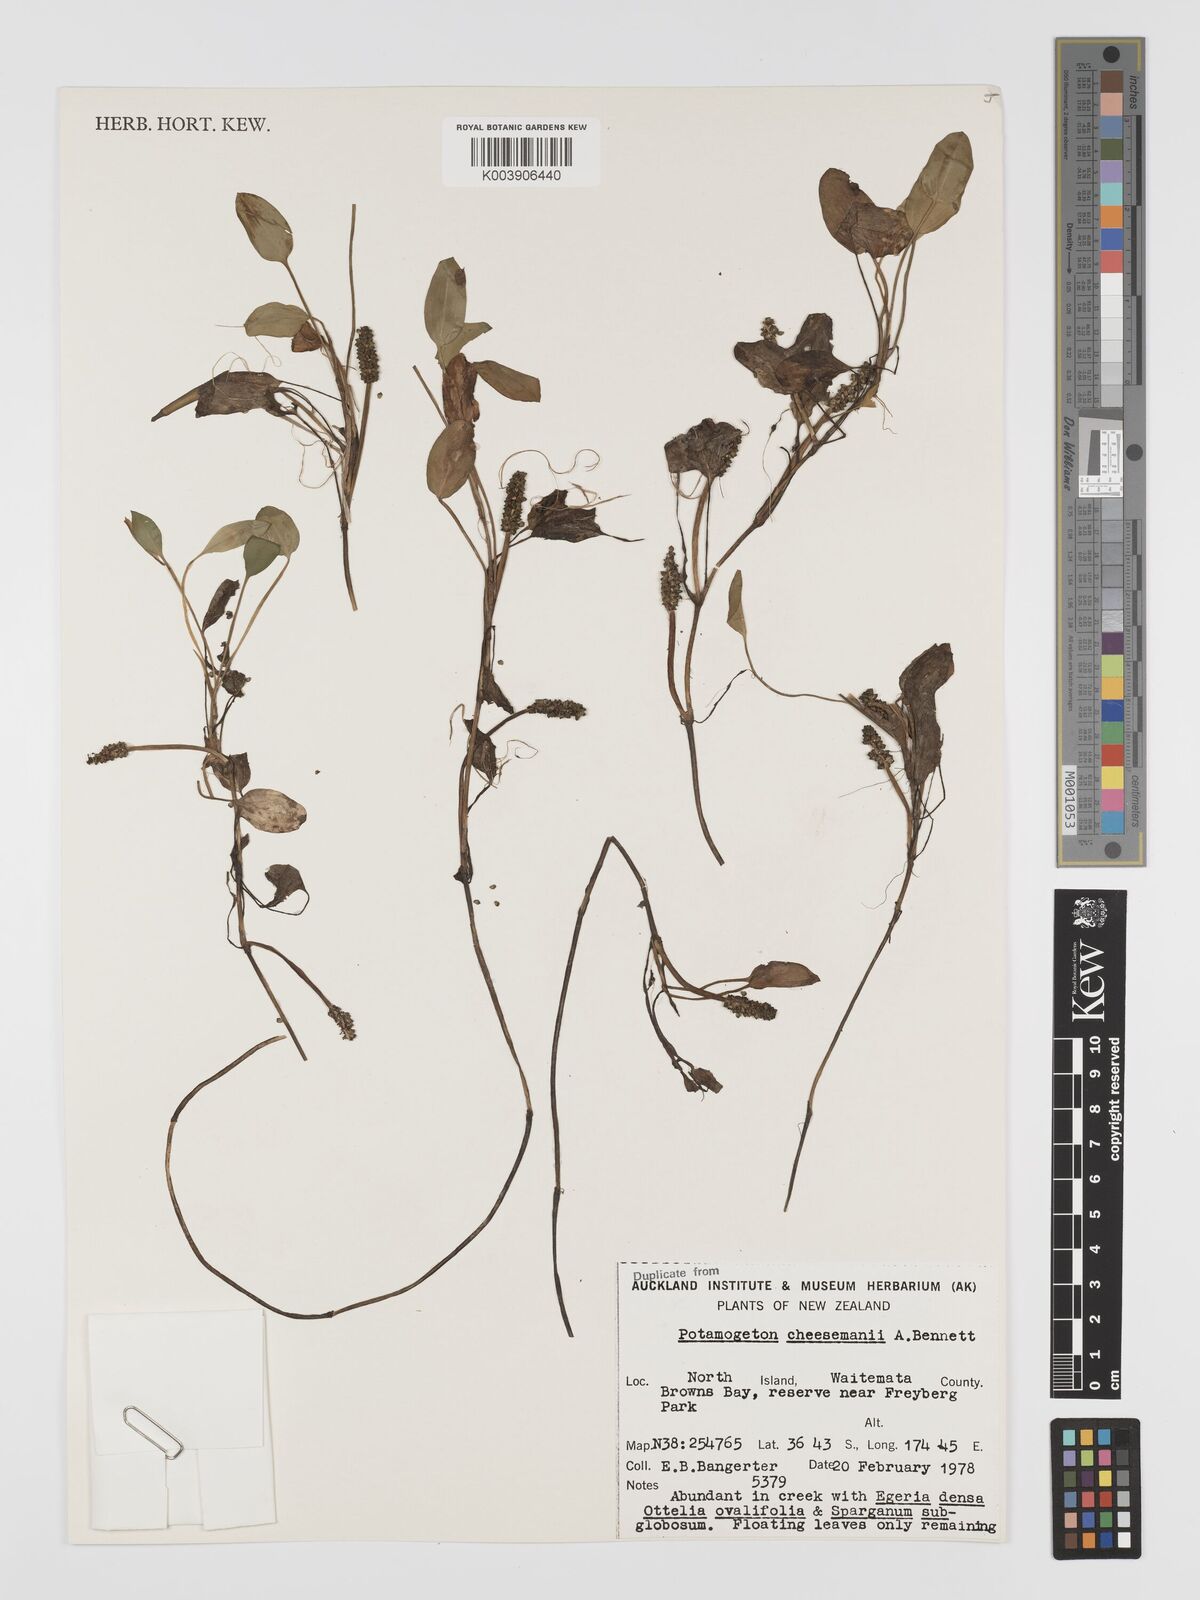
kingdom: Plantae
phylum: Tracheophyta
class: Liliopsida
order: Alismatales
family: Potamogetonaceae
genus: Potamogeton
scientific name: Potamogeton cheesemanii
